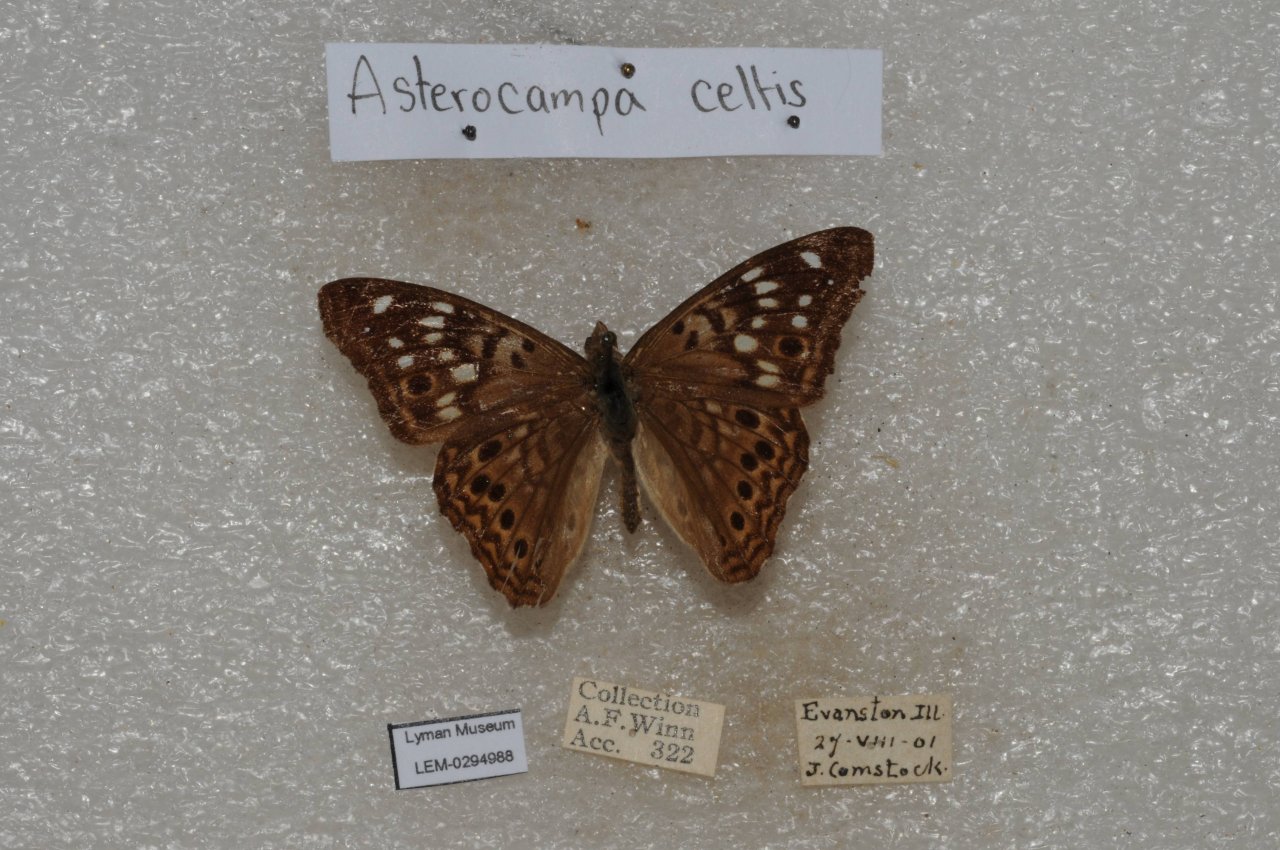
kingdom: Animalia
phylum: Arthropoda
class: Insecta
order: Lepidoptera
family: Nymphalidae
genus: Asterocampa
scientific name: Asterocampa celtis
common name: Hackberry Emperor
